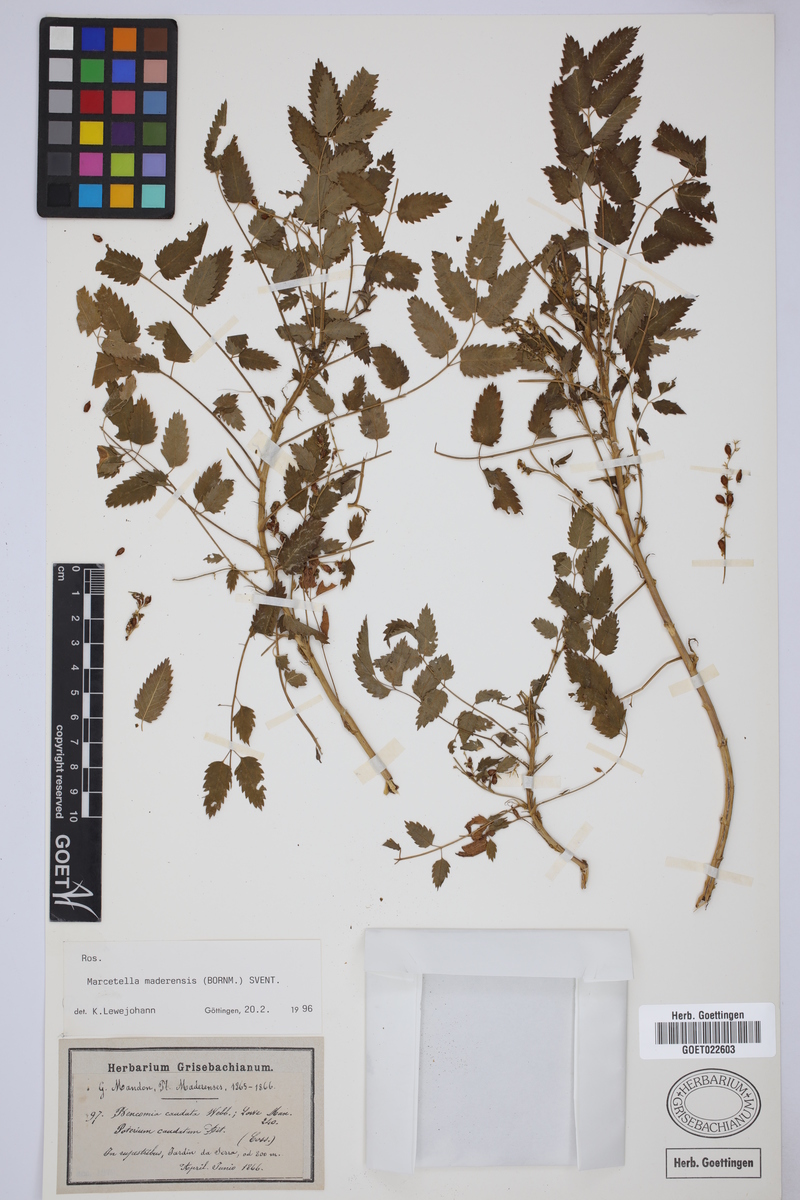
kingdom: Plantae
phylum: Tracheophyta
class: Magnoliopsida
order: Rosales
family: Rosaceae
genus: Marcetella
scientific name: Marcetella maderensis
